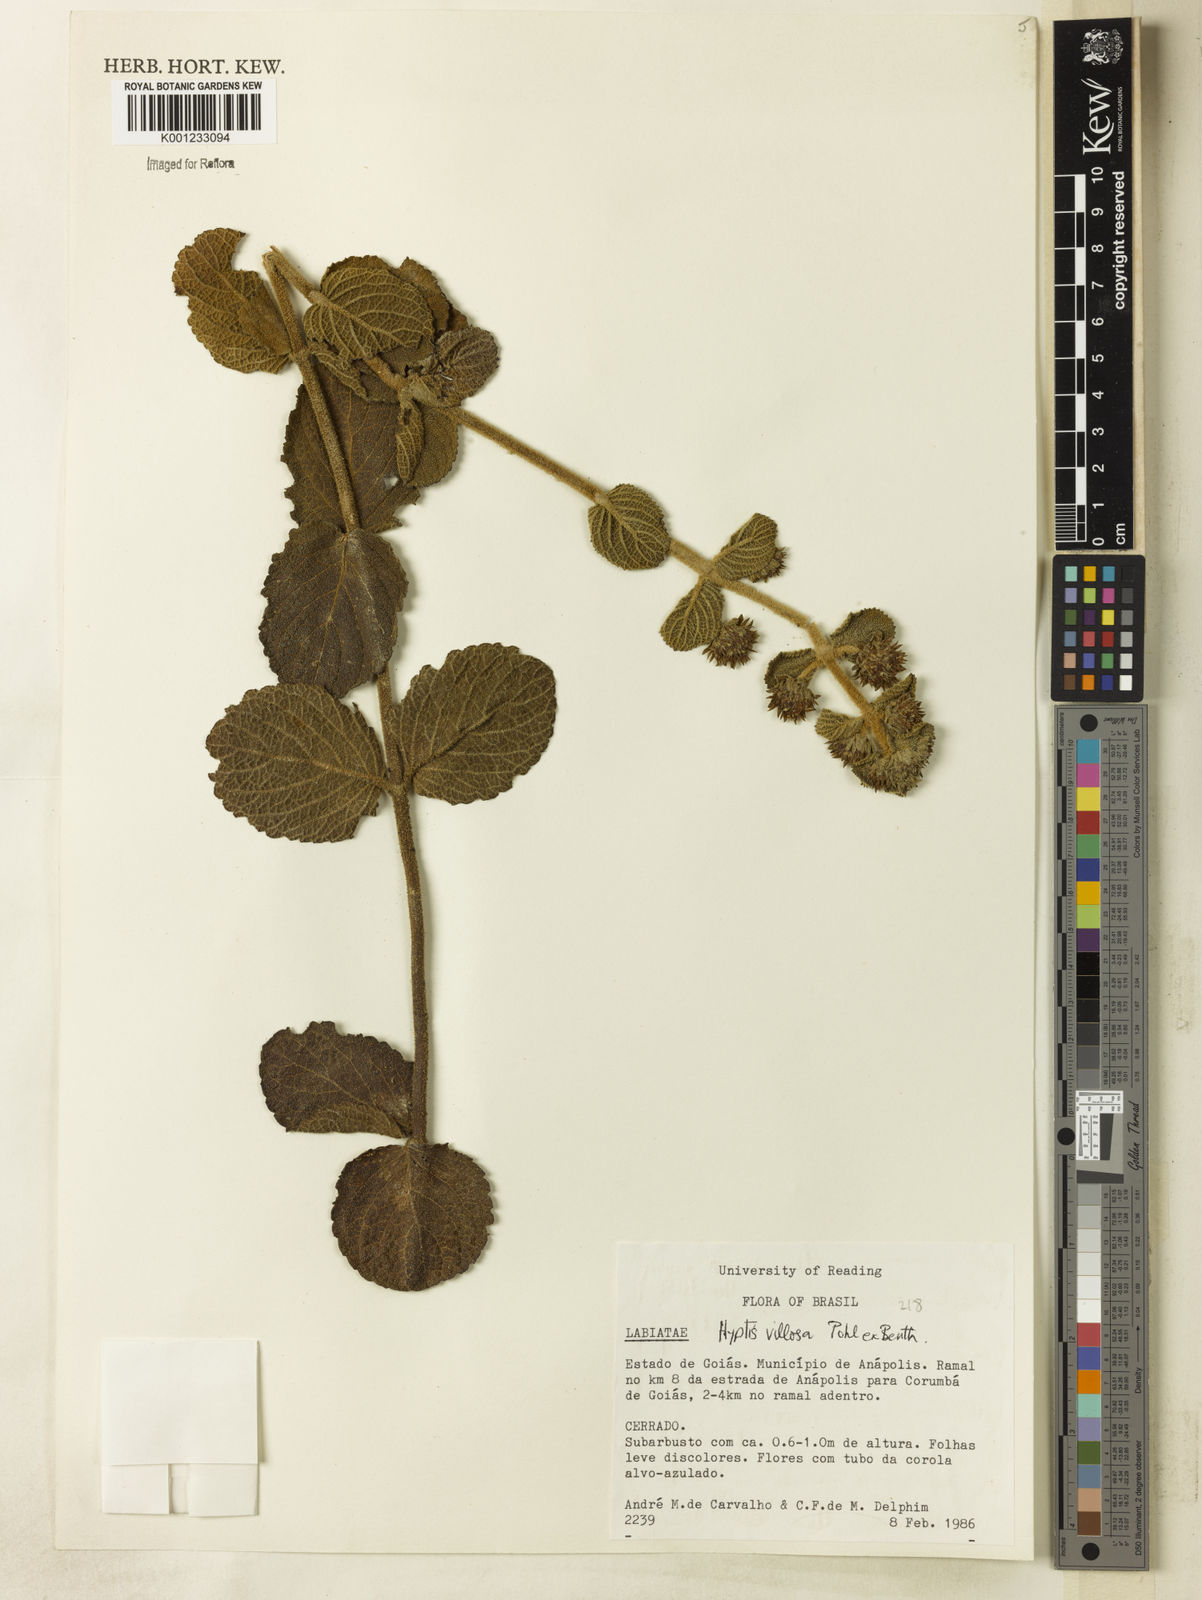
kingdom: Plantae
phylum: Tracheophyta
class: Magnoliopsida
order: Lamiales
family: Lamiaceae
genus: Hyptis
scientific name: Hyptis villosa
